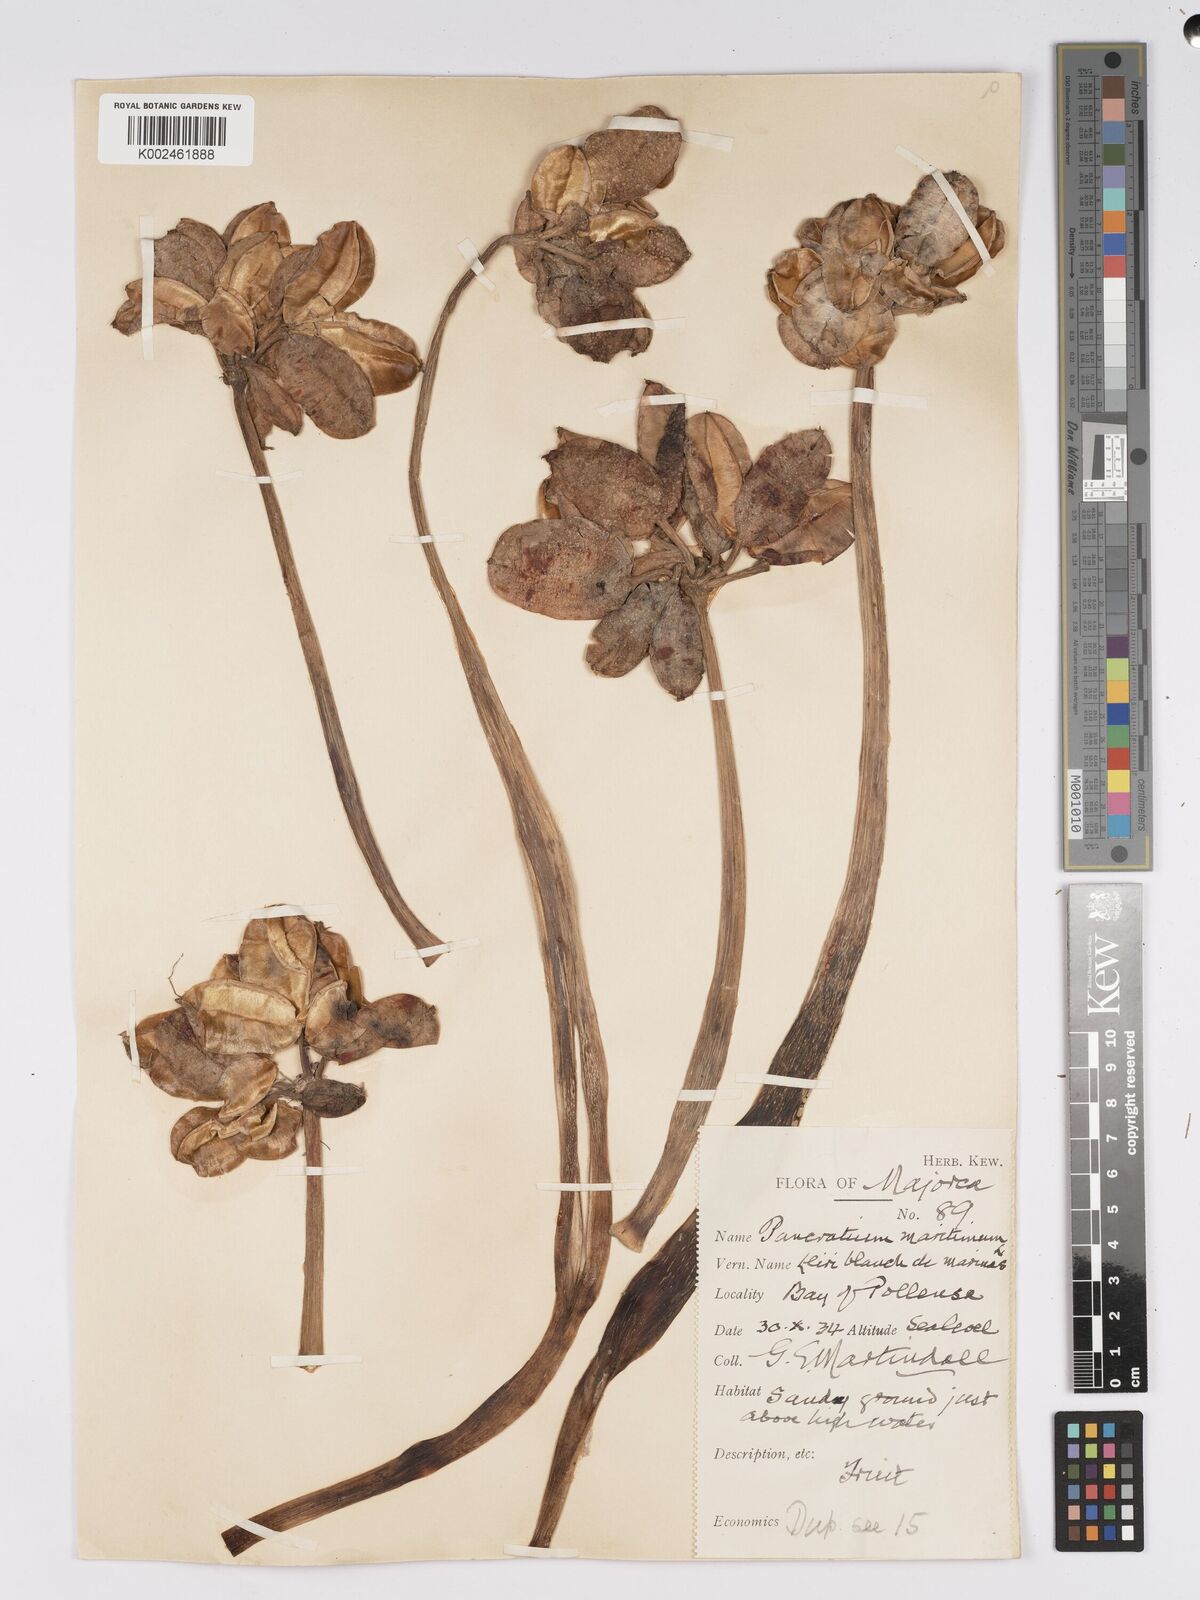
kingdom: Plantae
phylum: Tracheophyta
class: Liliopsida
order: Asparagales
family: Amaryllidaceae
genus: Pancratium
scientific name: Pancratium maritimum
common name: Sea-daffodil
